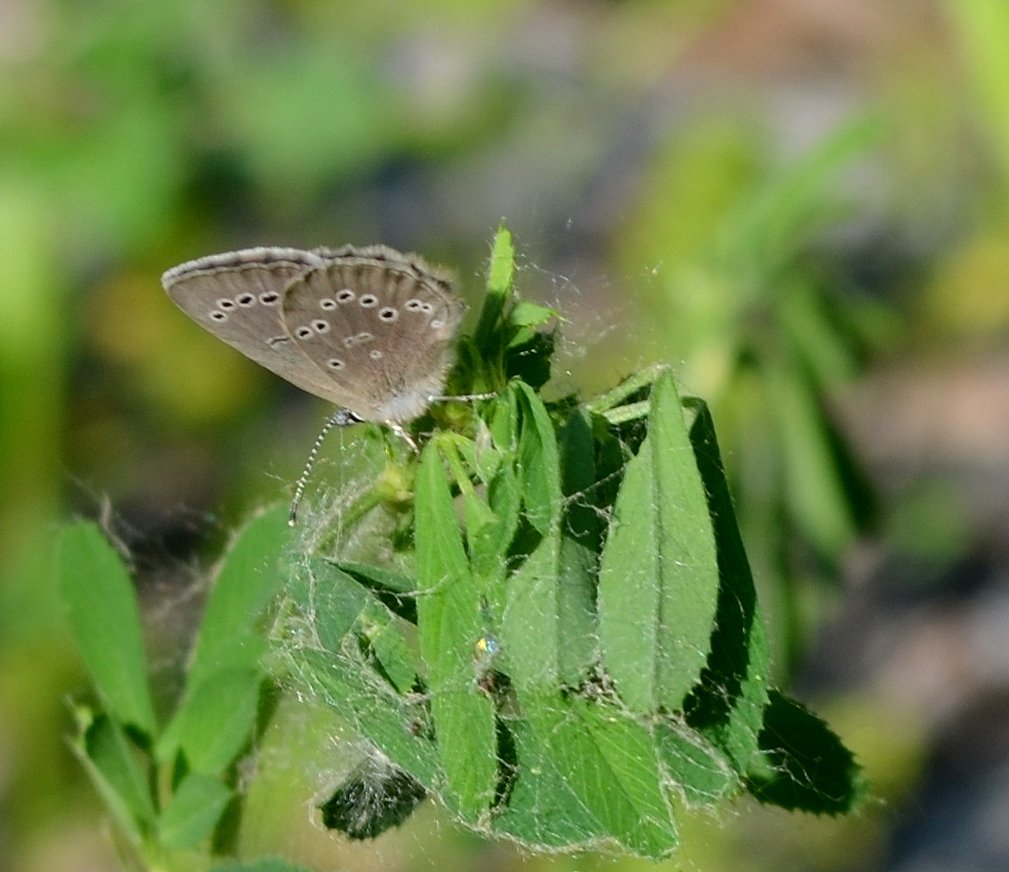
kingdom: Animalia
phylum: Arthropoda
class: Insecta
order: Lepidoptera
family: Lycaenidae
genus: Glaucopsyche
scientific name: Glaucopsyche lygdamus
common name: Silvery Blue
